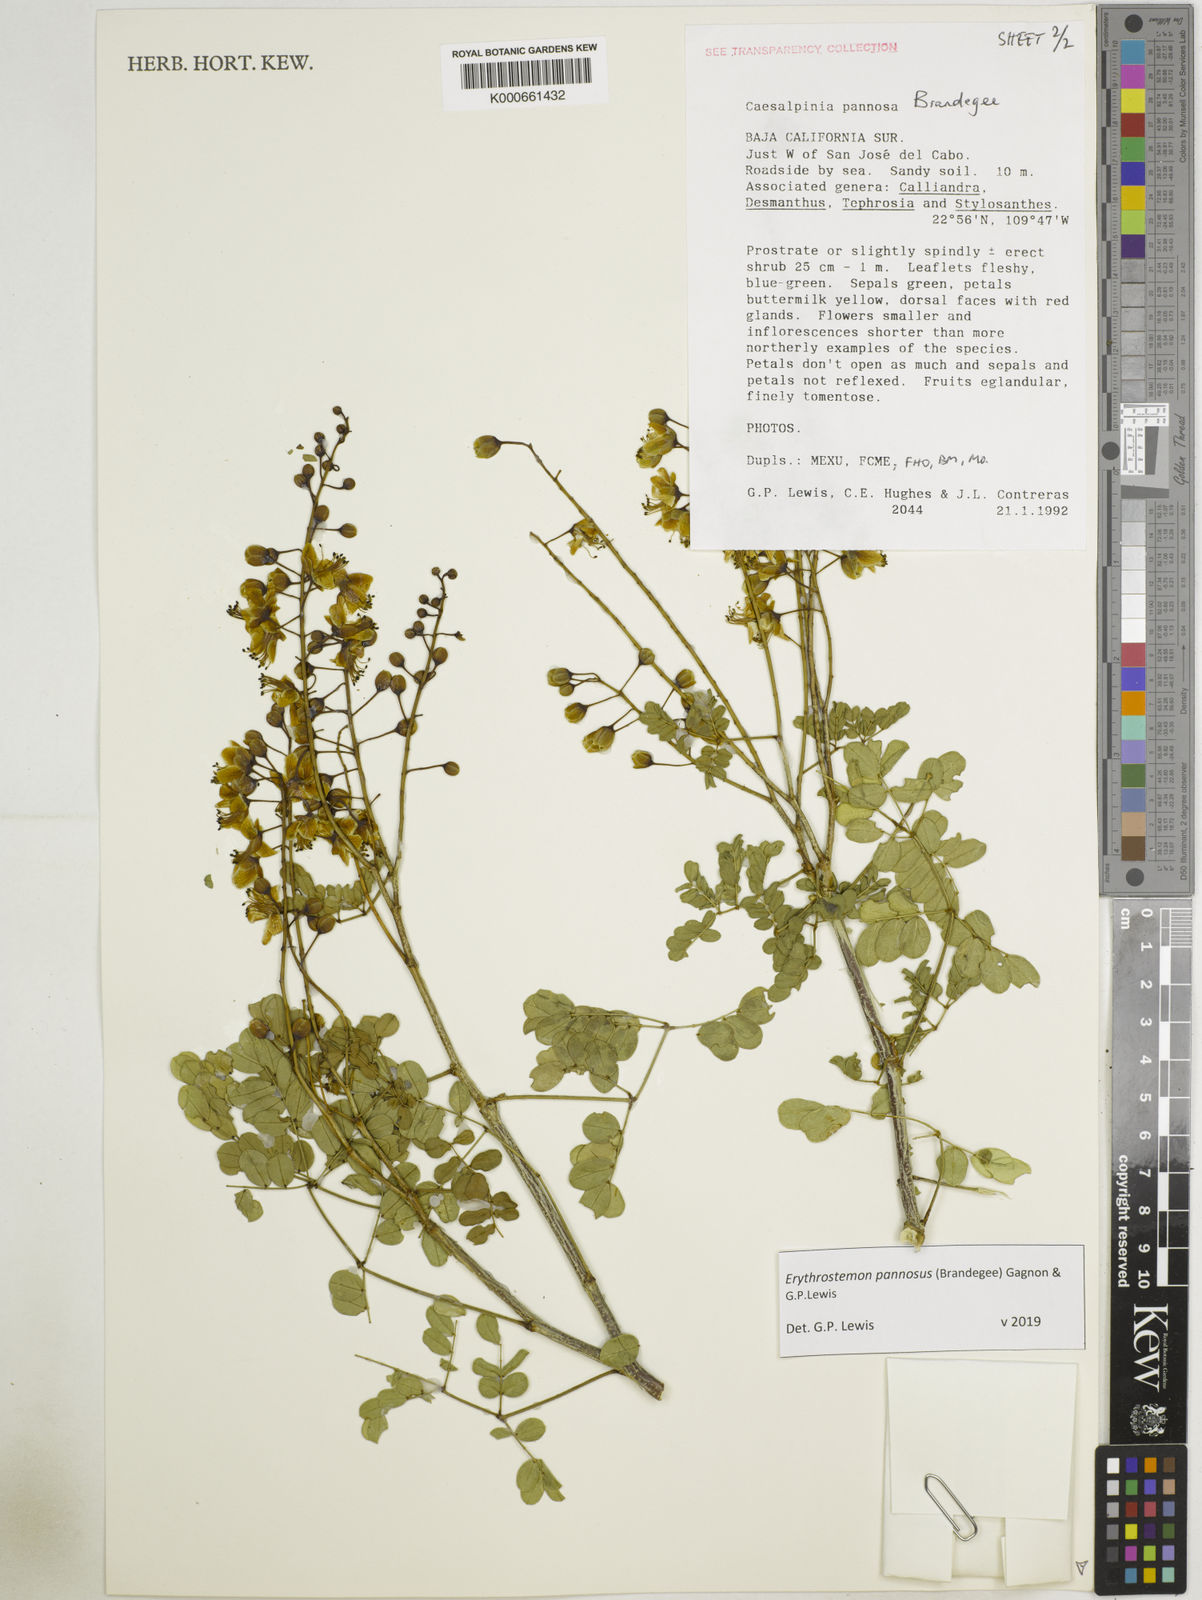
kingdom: Plantae
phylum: Tracheophyta
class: Magnoliopsida
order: Fabales
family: Fabaceae
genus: Erythrostemon
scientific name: Erythrostemon pannosus
